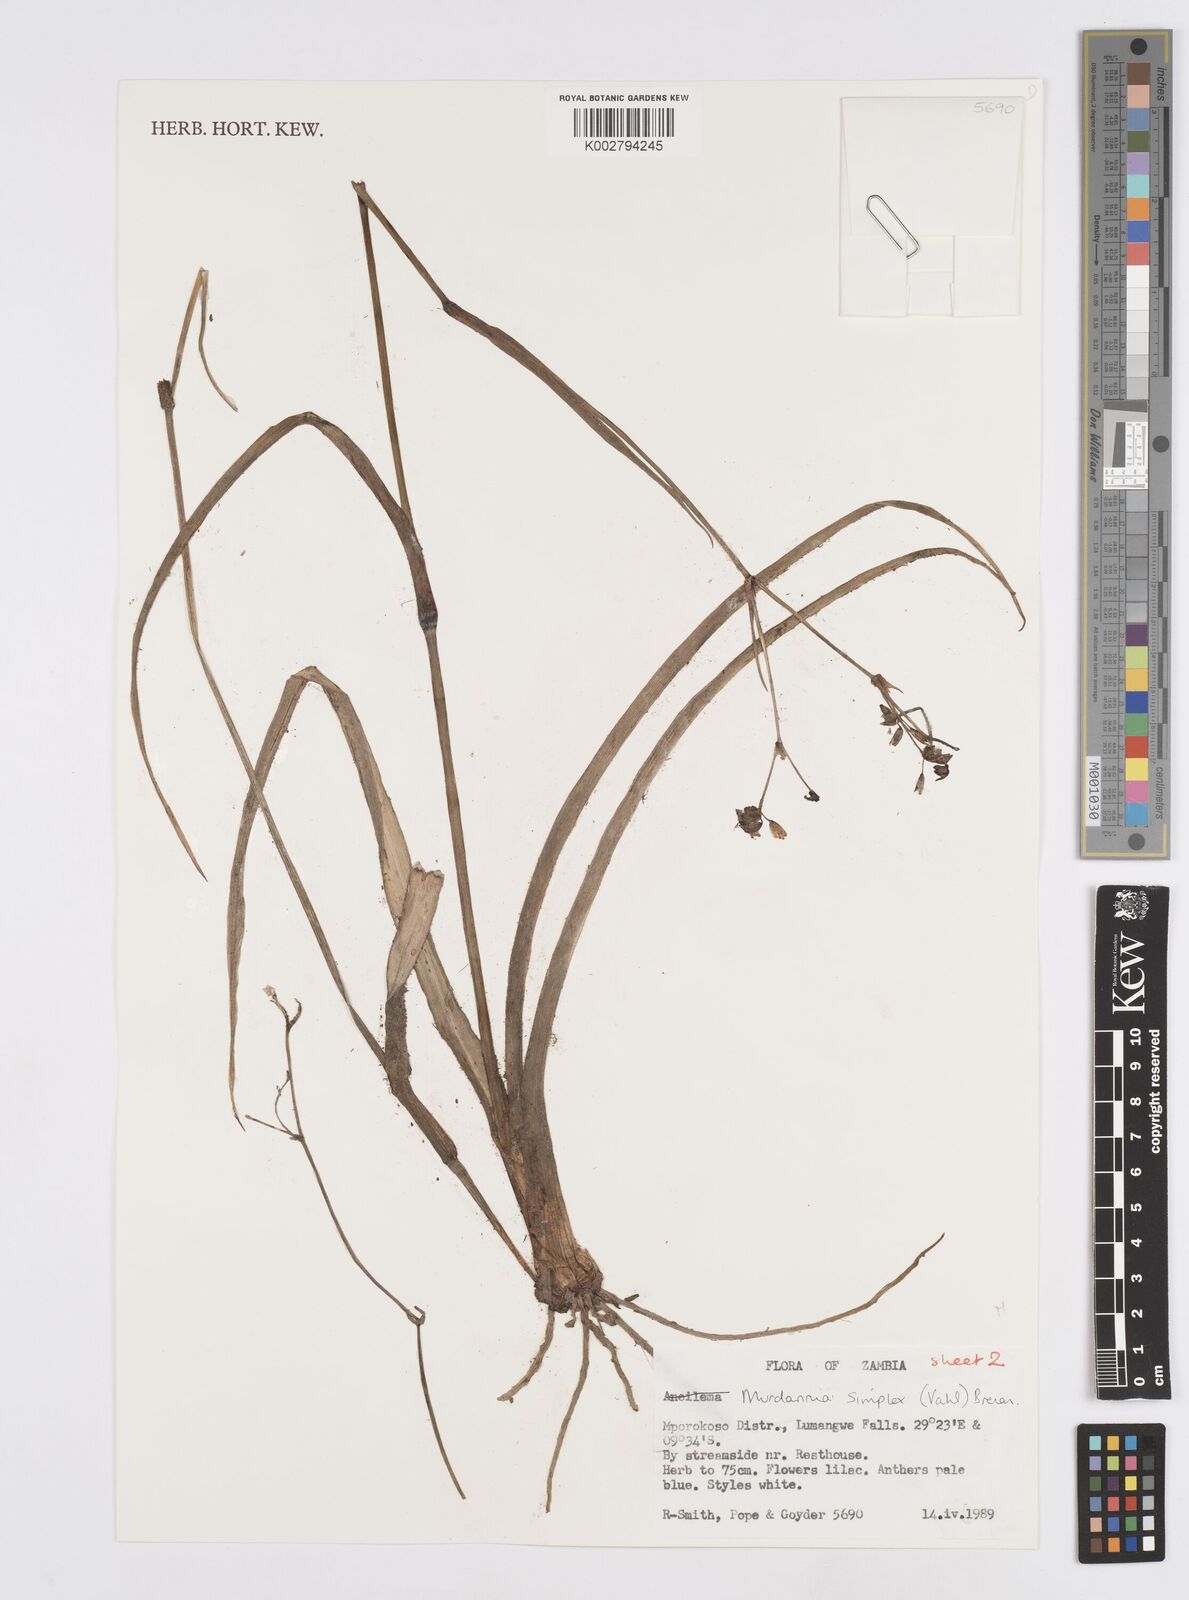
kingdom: Plantae
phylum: Tracheophyta
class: Liliopsida
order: Commelinales
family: Commelinaceae
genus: Murdannia
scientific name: Murdannia simplex
